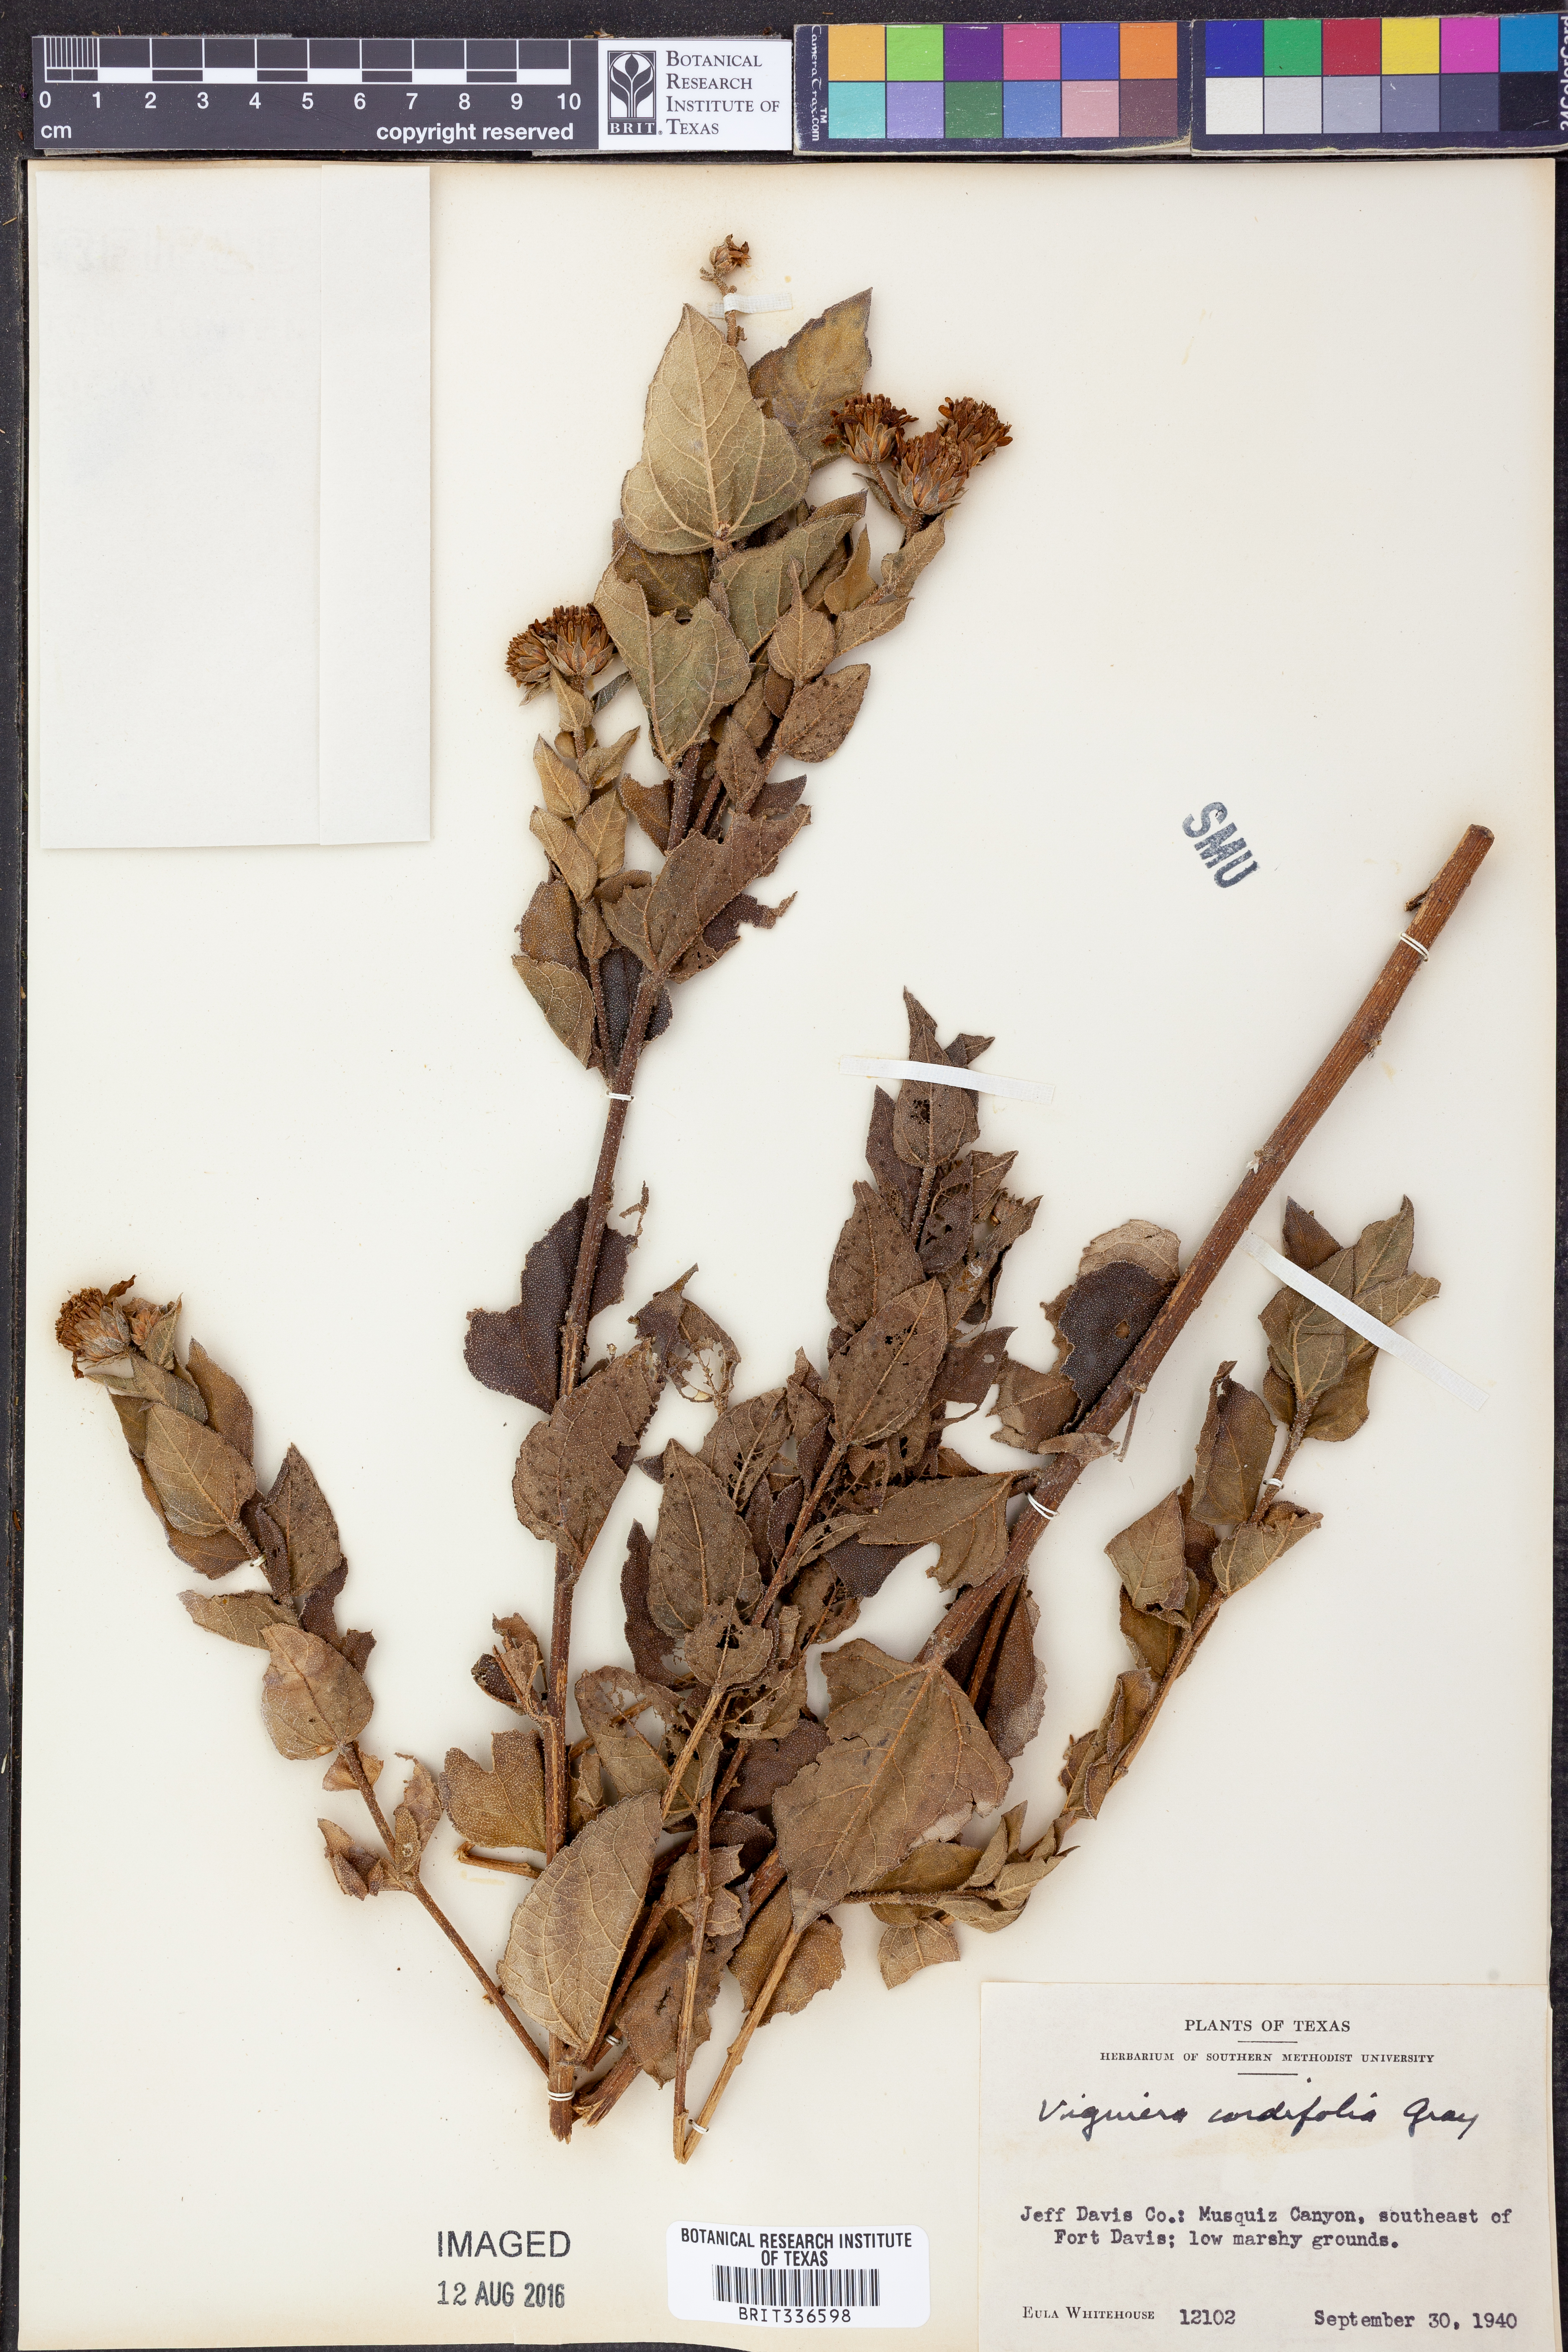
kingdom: Plantae
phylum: Tracheophyta
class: Magnoliopsida
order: Asterales
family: Asteraceae
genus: Aldama
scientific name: Aldama cordifolia
